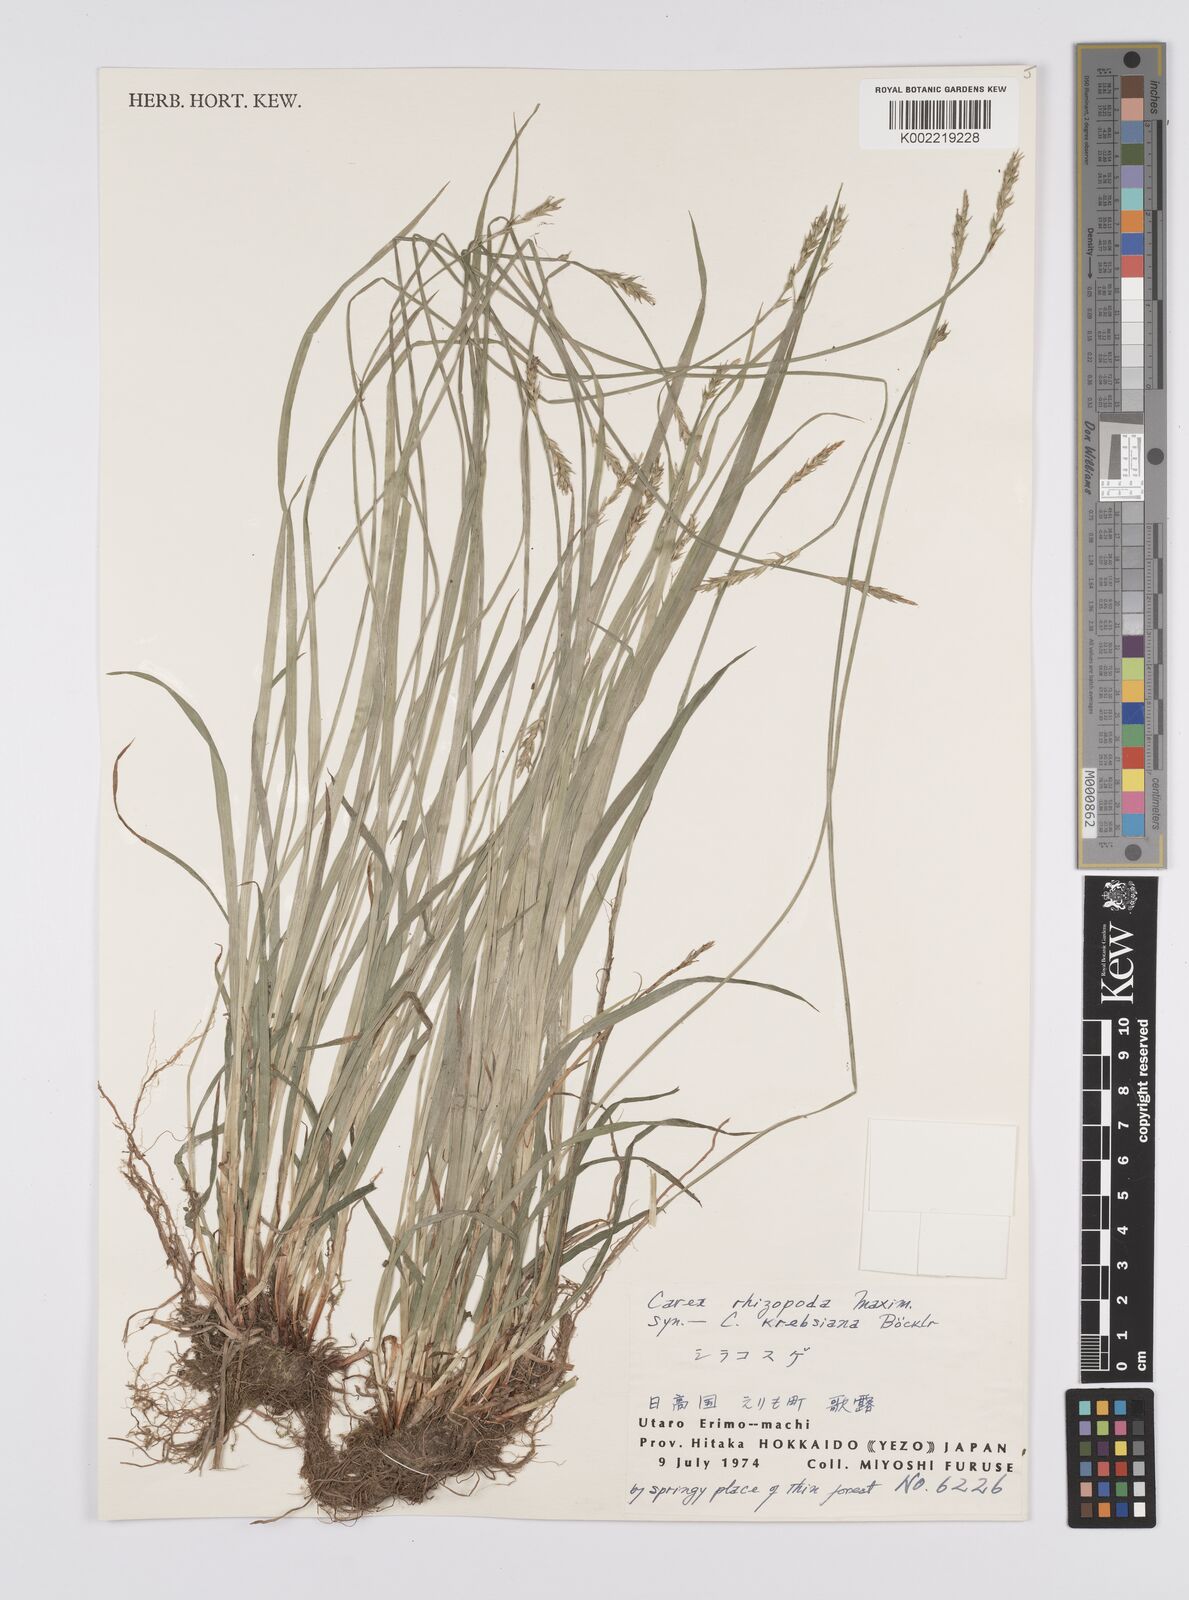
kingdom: Plantae
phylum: Tracheophyta
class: Liliopsida
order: Poales
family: Cyperaceae
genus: Carex
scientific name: Carex rhizopoda
